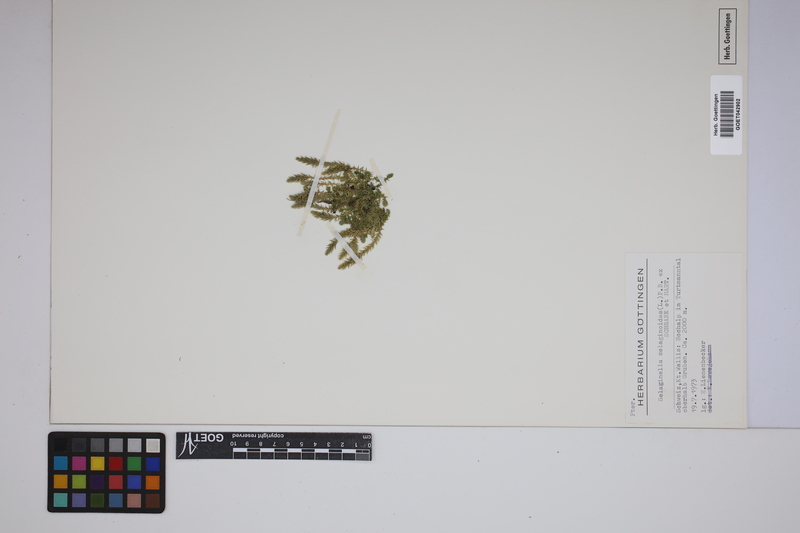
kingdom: Plantae
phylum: Tracheophyta
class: Lycopodiopsida
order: Selaginellales
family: Selaginellaceae
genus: Selaginella
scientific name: Selaginella selaginoides
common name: Prickly mountain-moss
